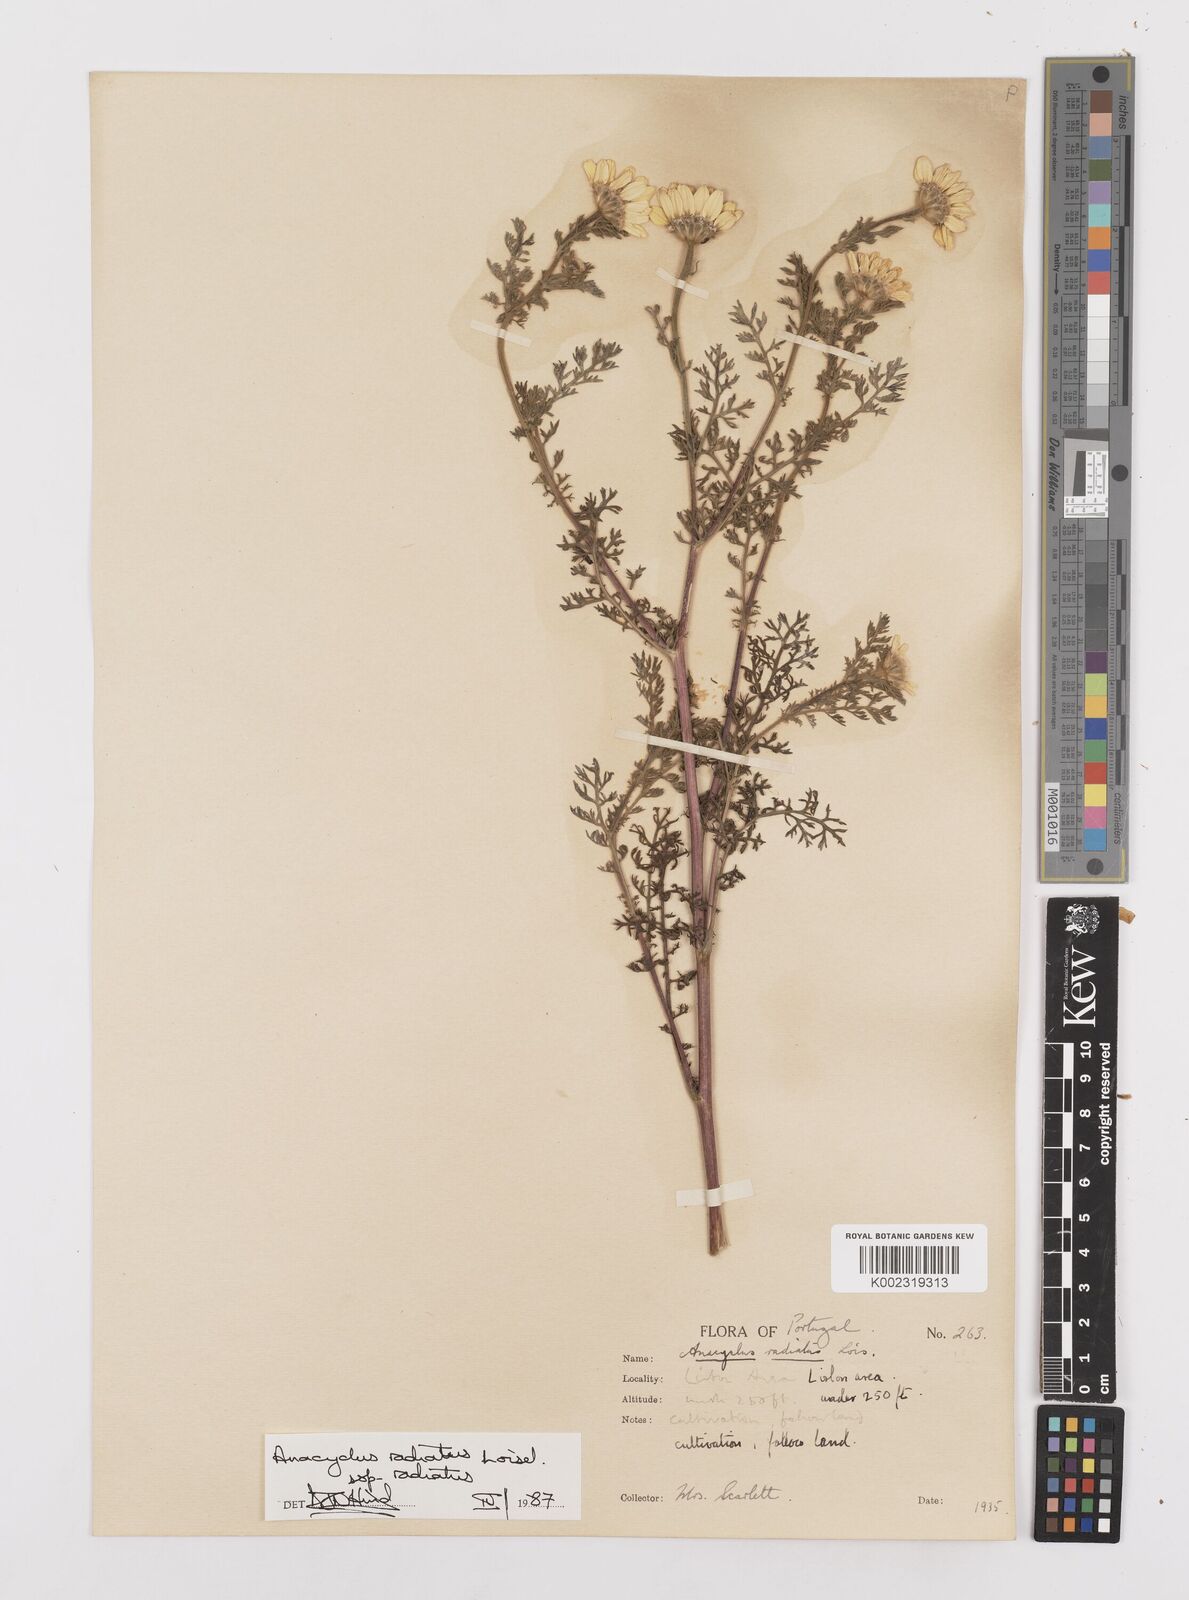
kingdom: Plantae
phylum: Tracheophyta
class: Magnoliopsida
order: Asterales
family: Asteraceae
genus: Anacyclus
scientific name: Anacyclus radiatus
